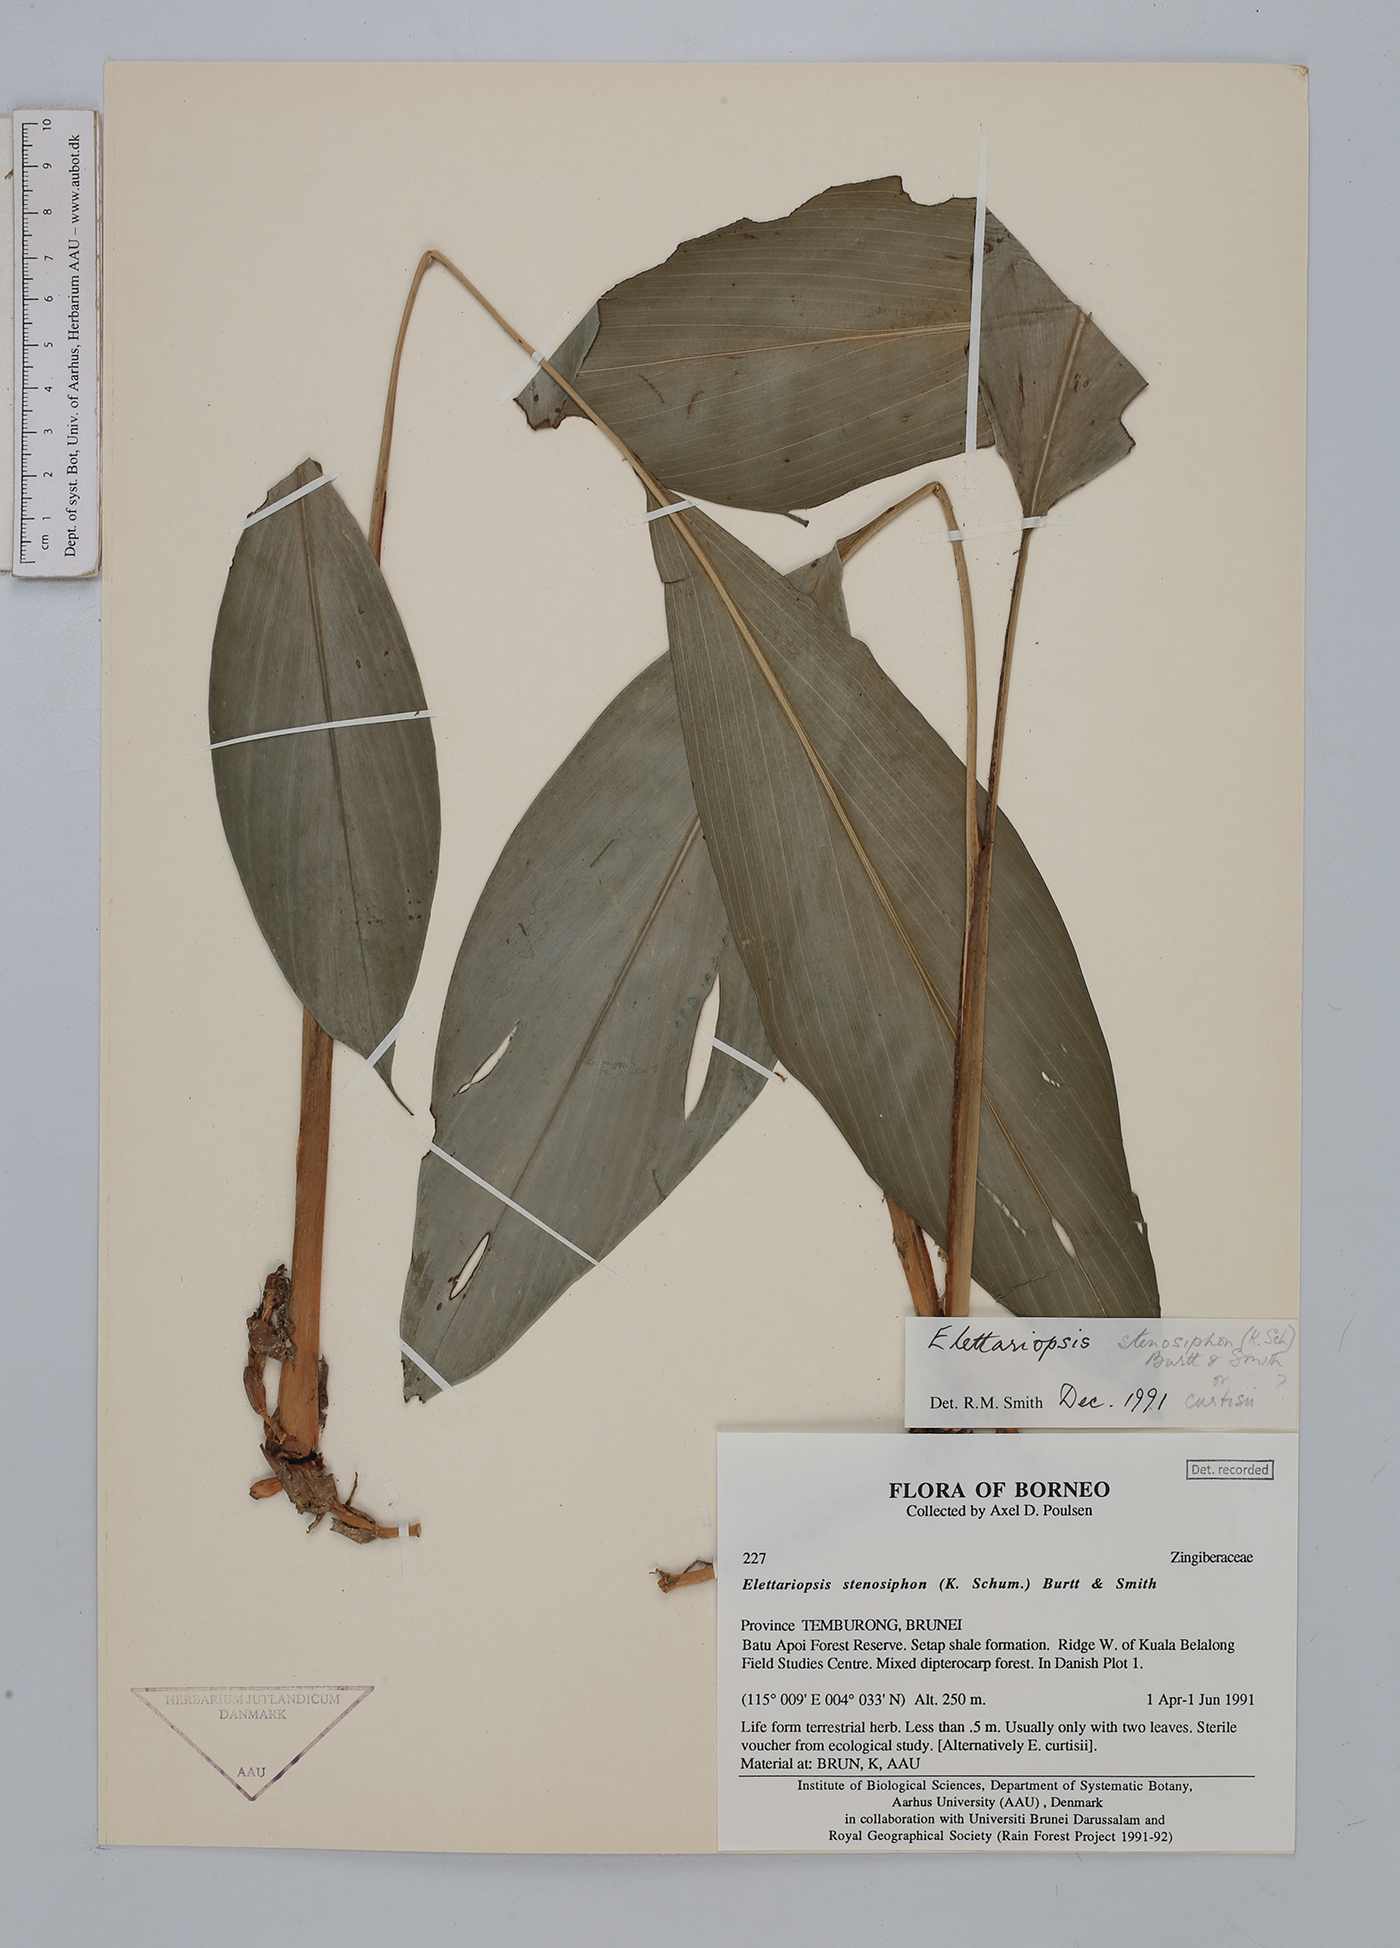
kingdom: Plantae
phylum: Tracheophyta
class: Liliopsida
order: Zingiberales
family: Zingiberaceae
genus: Amomum
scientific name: Amomum stenosiphon
